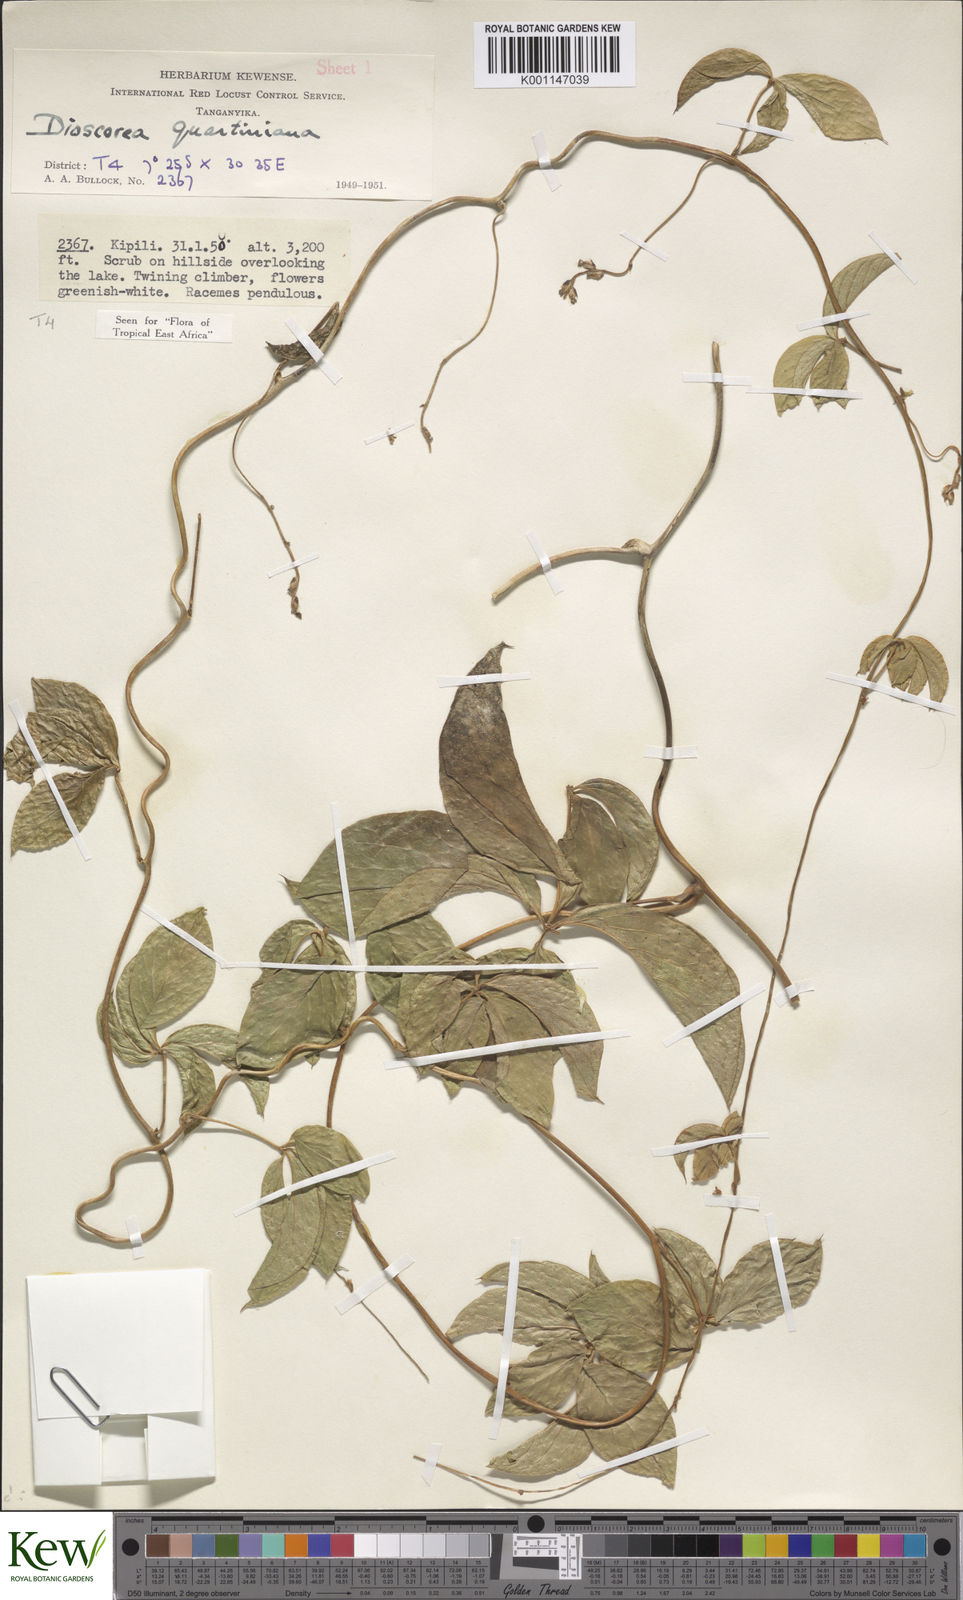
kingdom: Plantae
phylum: Tracheophyta
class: Liliopsida
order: Dioscoreales
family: Dioscoreaceae
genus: Dioscorea
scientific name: Dioscorea quartiniana
